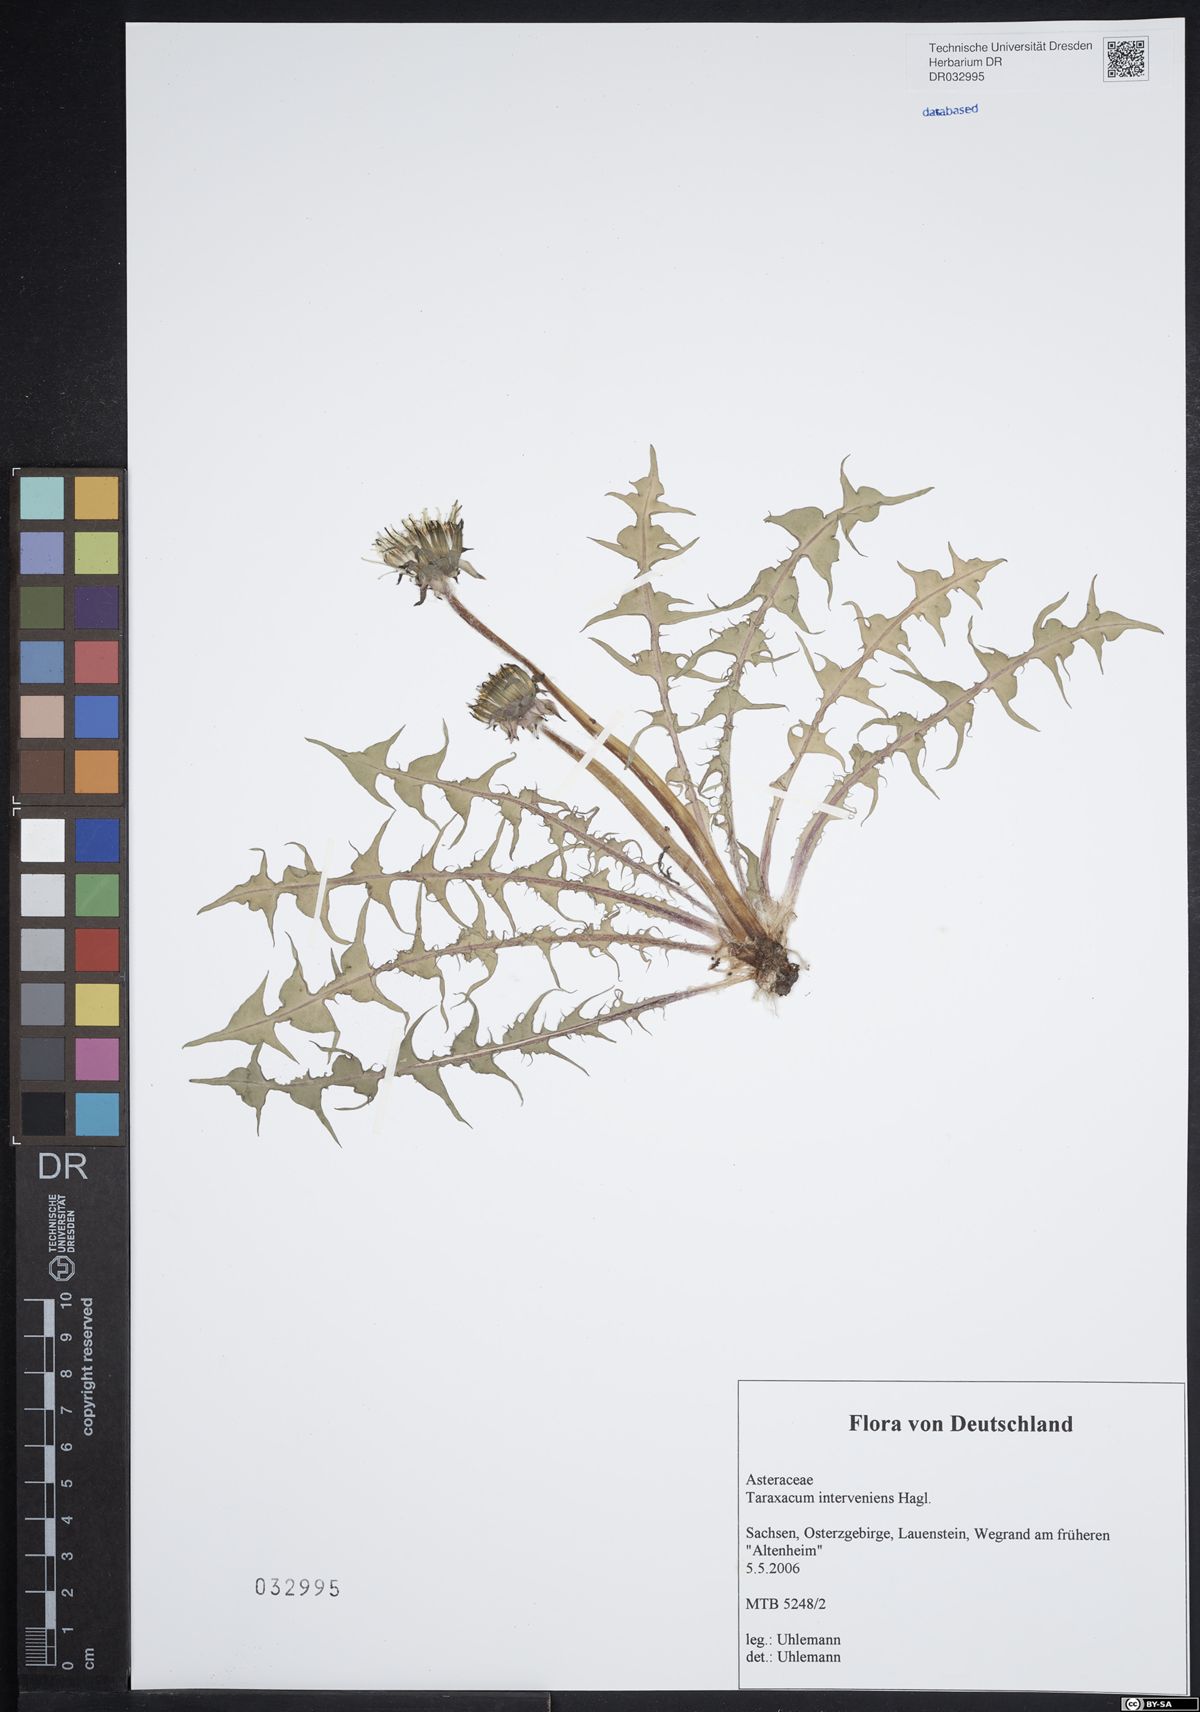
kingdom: Plantae
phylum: Tracheophyta
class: Magnoliopsida
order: Asterales
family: Asteraceae
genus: Taraxacum
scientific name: Taraxacum interveniens
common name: City dandelion
